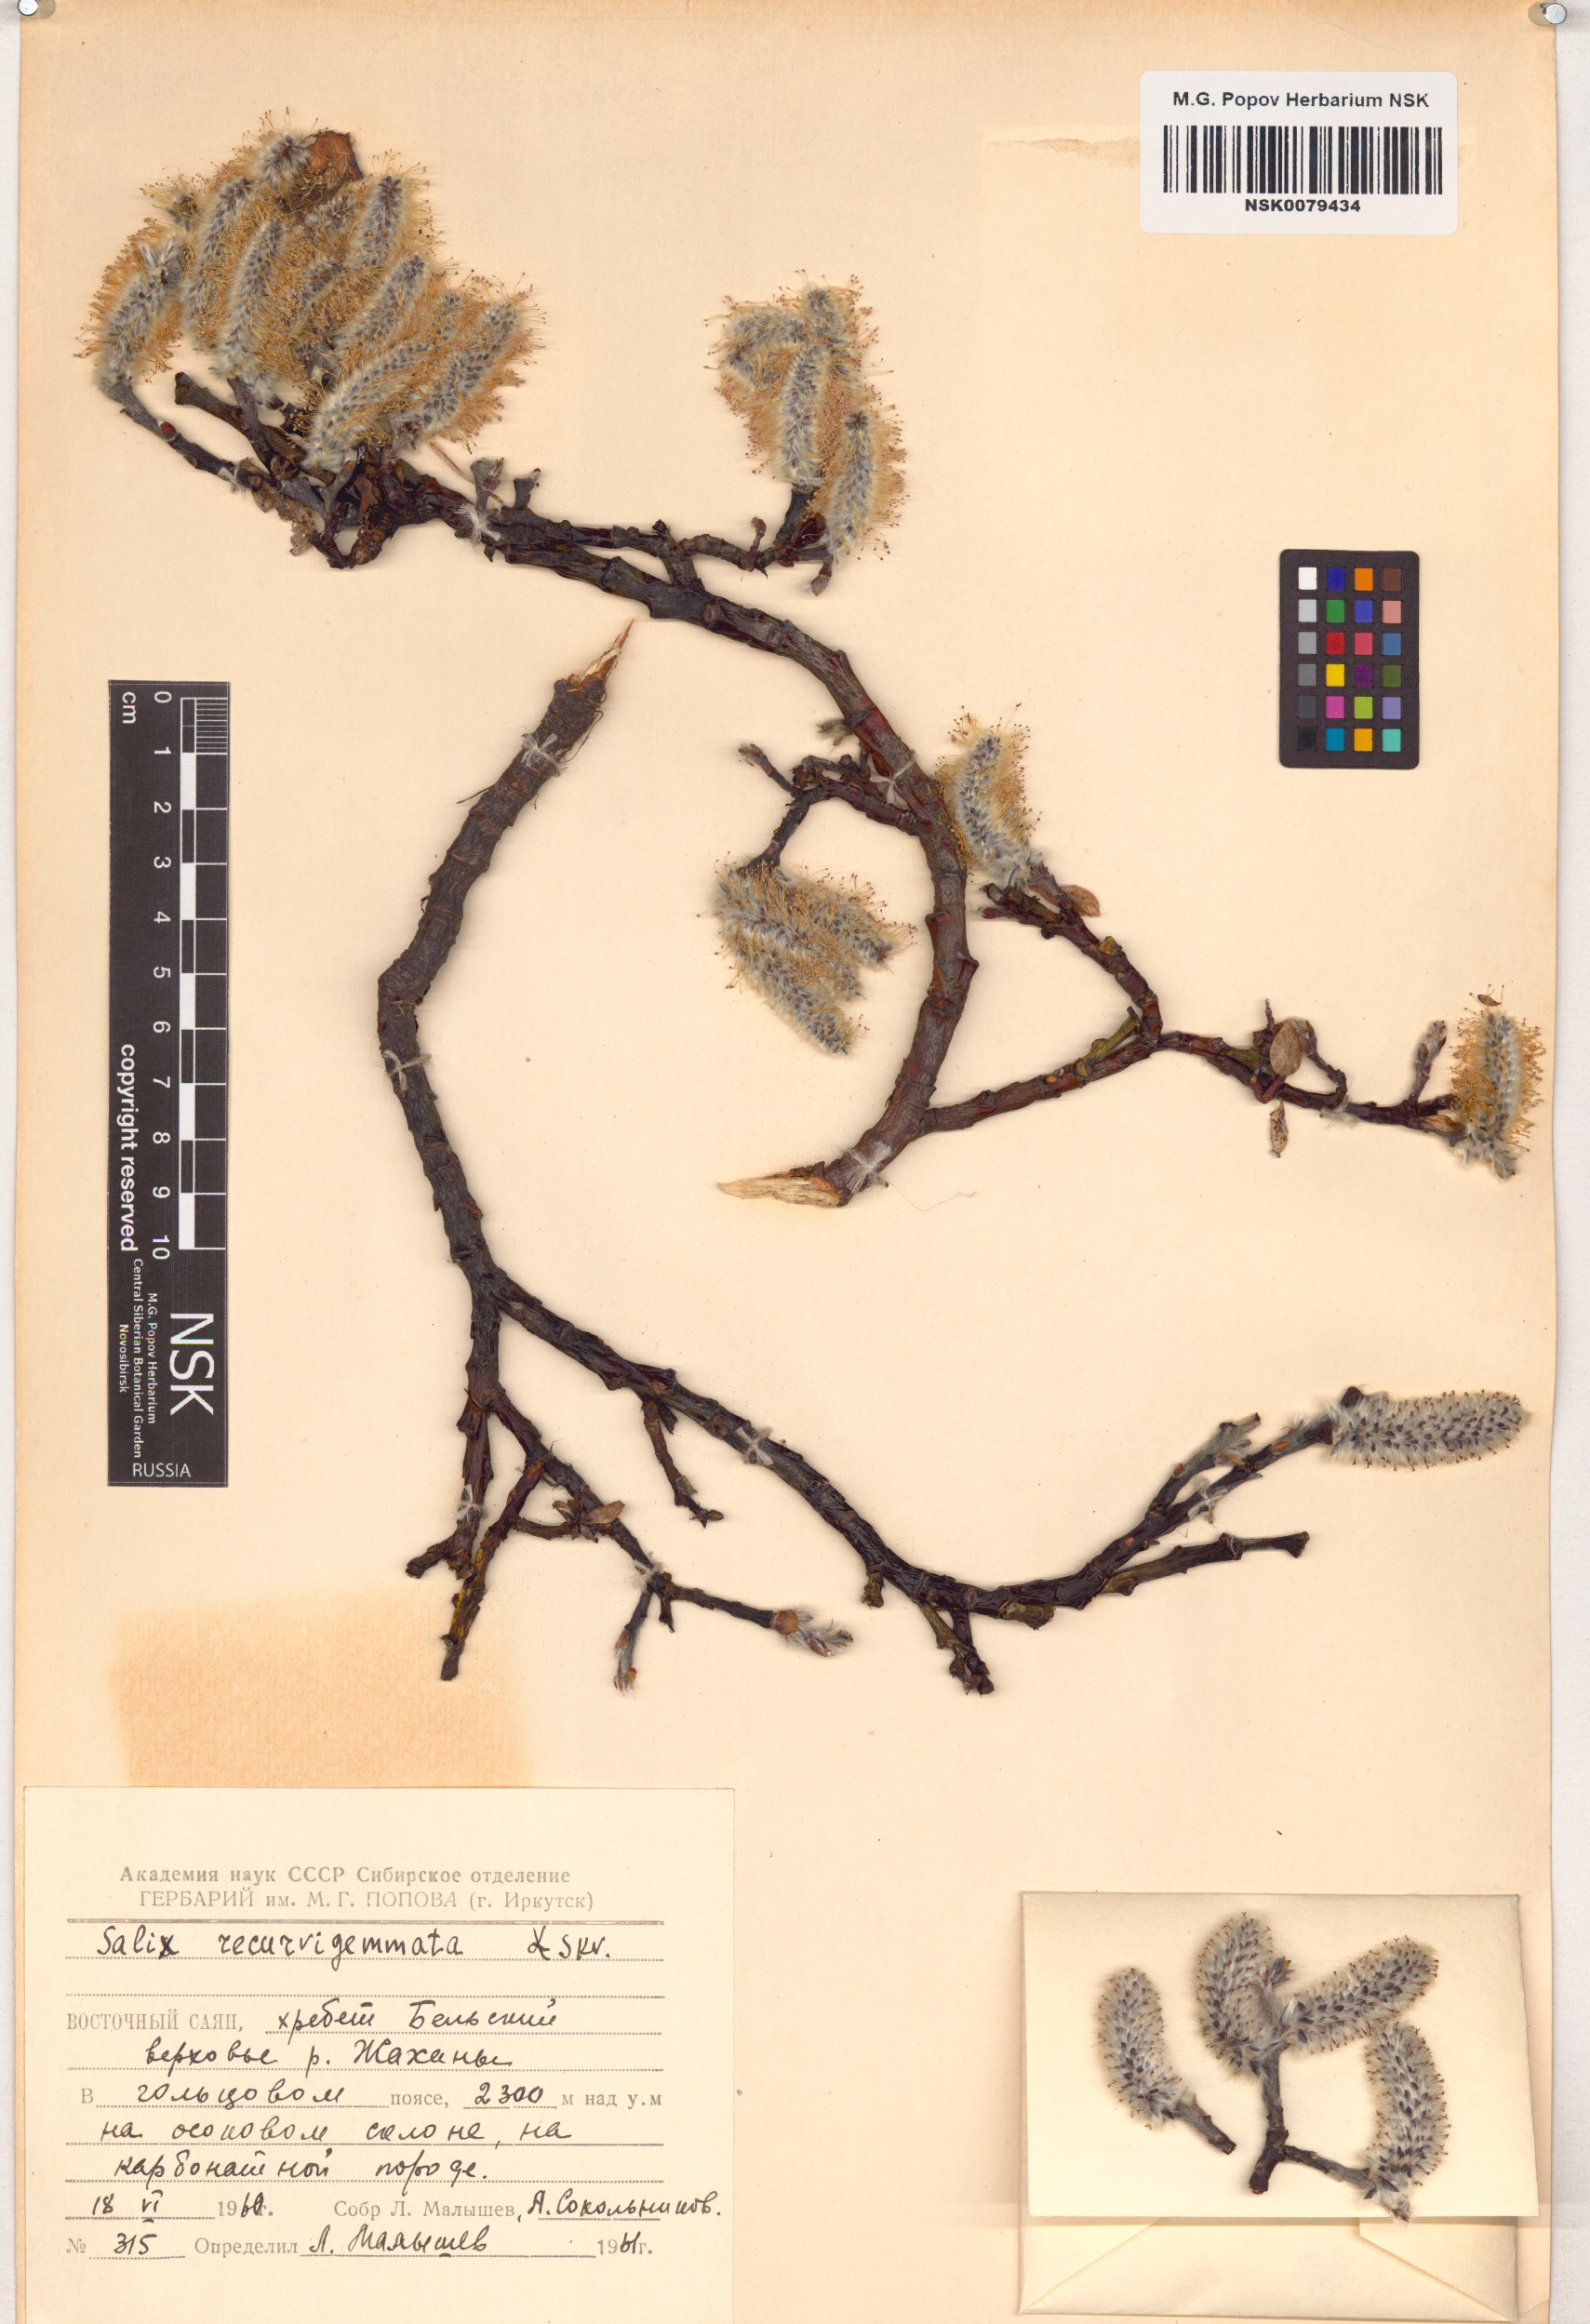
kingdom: Plantae
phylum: Tracheophyta
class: Magnoliopsida
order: Malpighiales
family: Salicaceae
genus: Salix
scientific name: Salix recurvigemmata
